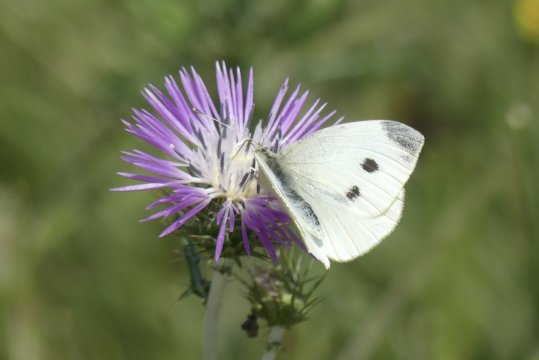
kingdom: Animalia
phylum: Arthropoda
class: Insecta
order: Lepidoptera
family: Pieridae
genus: Pieris
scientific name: Pieris rapae
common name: Cabbage White
